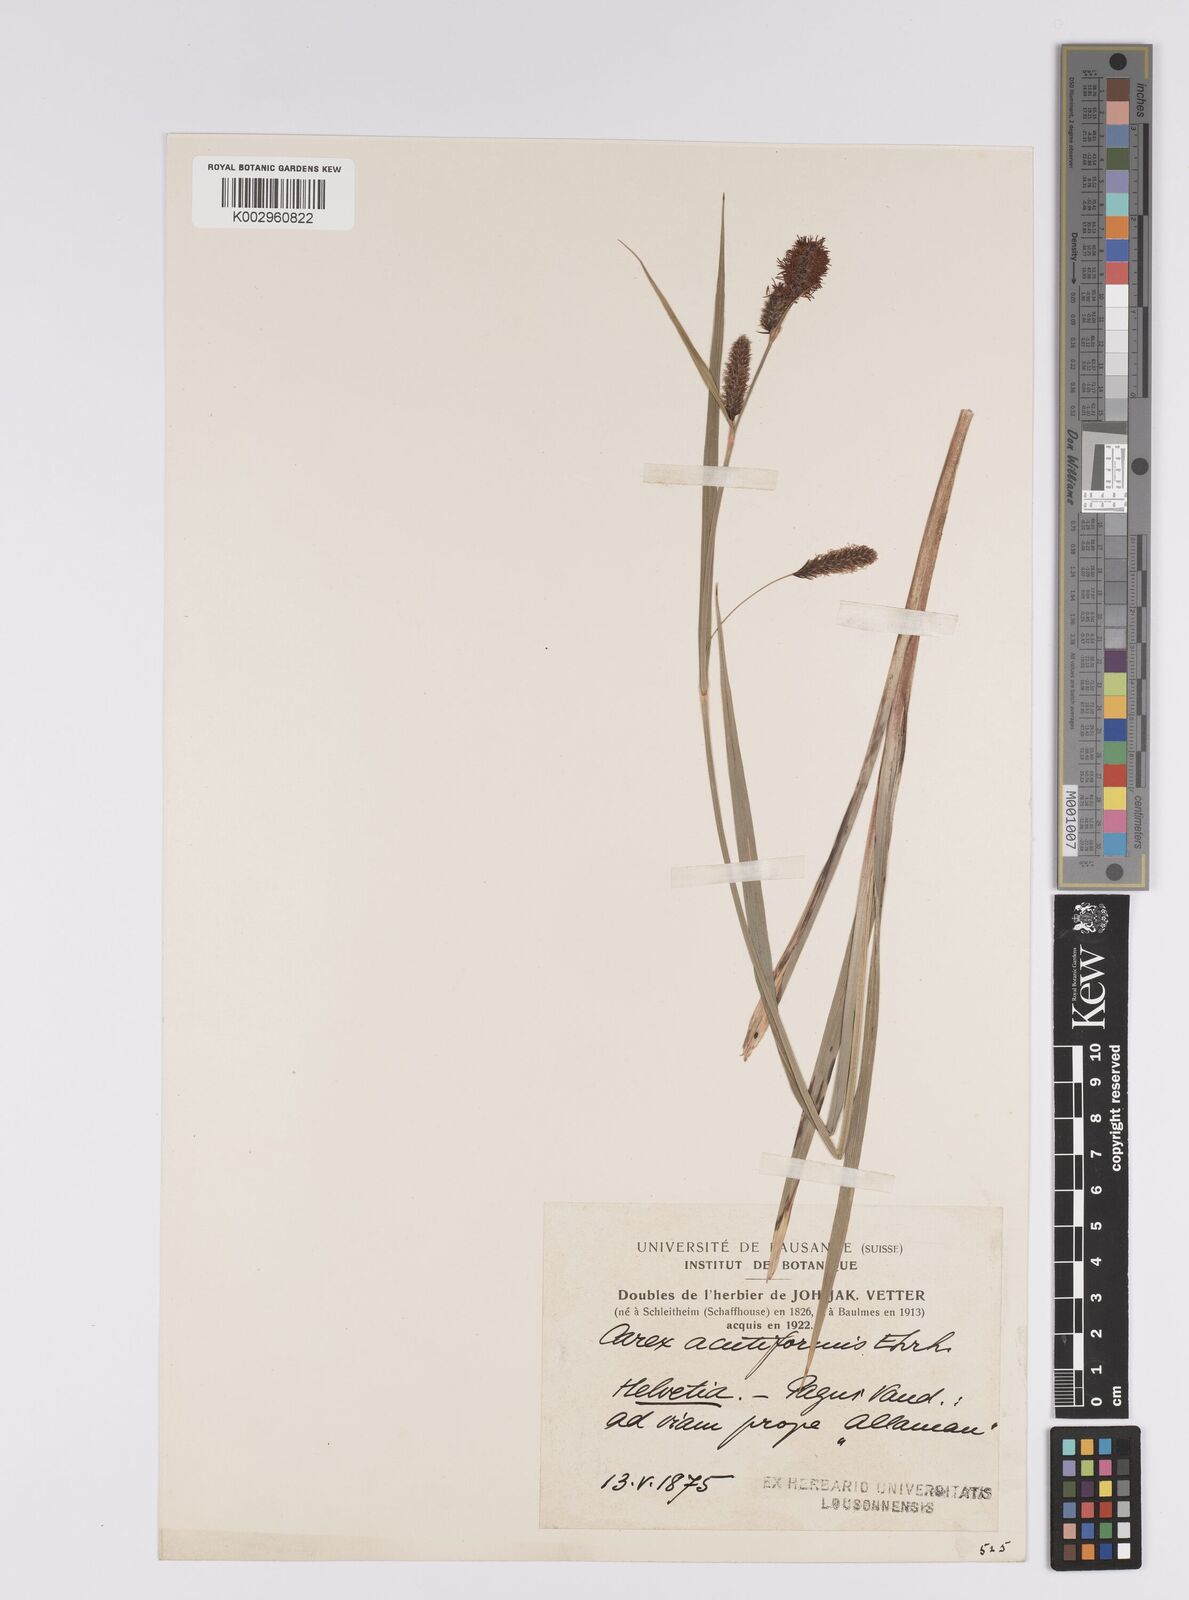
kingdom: Plantae
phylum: Tracheophyta
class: Liliopsida
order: Poales
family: Cyperaceae
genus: Carex
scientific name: Carex acutiformis
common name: Lesser pond-sedge
